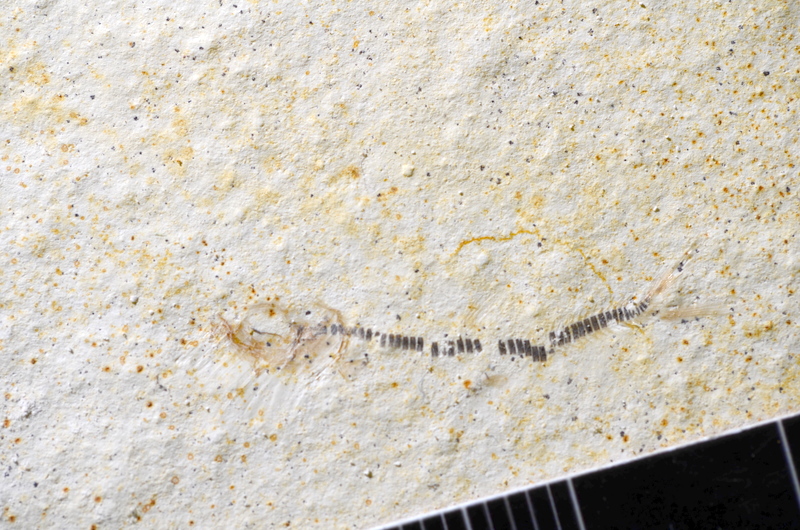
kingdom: Animalia
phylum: Chordata
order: Salmoniformes
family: Orthogonikleithridae
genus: Orthogonikleithrus
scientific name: Orthogonikleithrus hoelli
